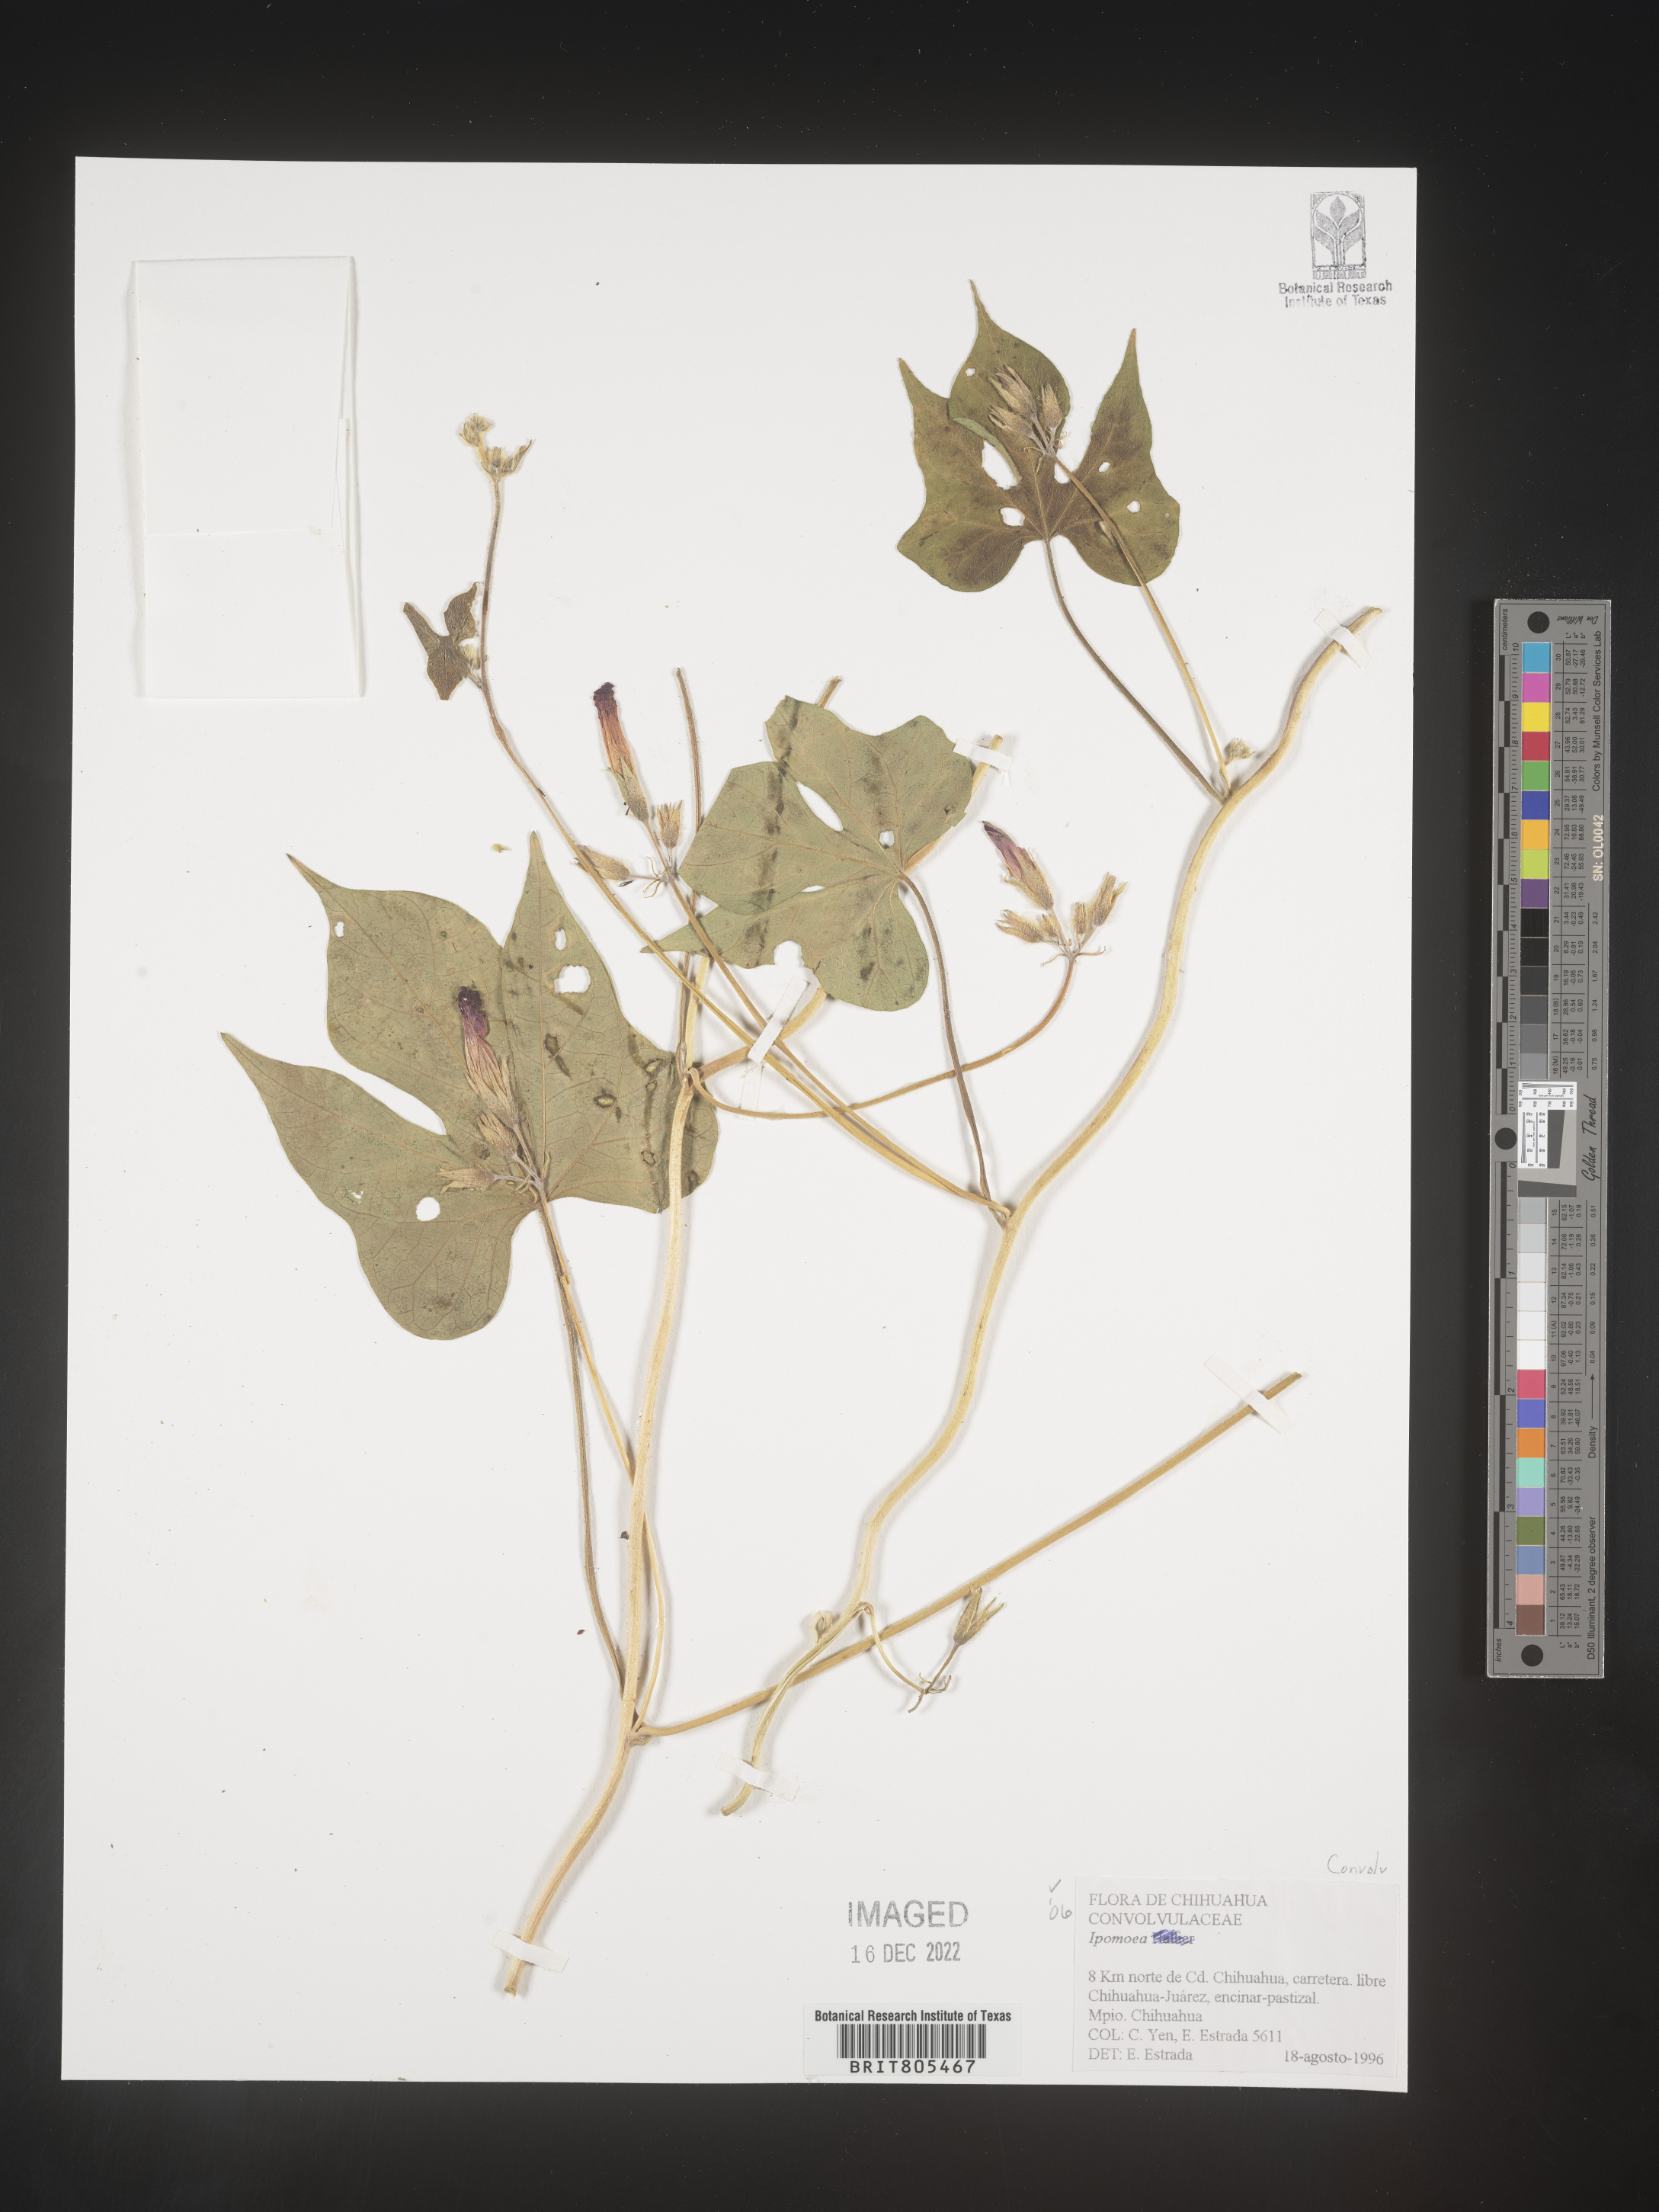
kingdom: Plantae
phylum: Tracheophyta
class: Magnoliopsida
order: Solanales
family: Convolvulaceae
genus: Ipomoea
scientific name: Ipomoea
